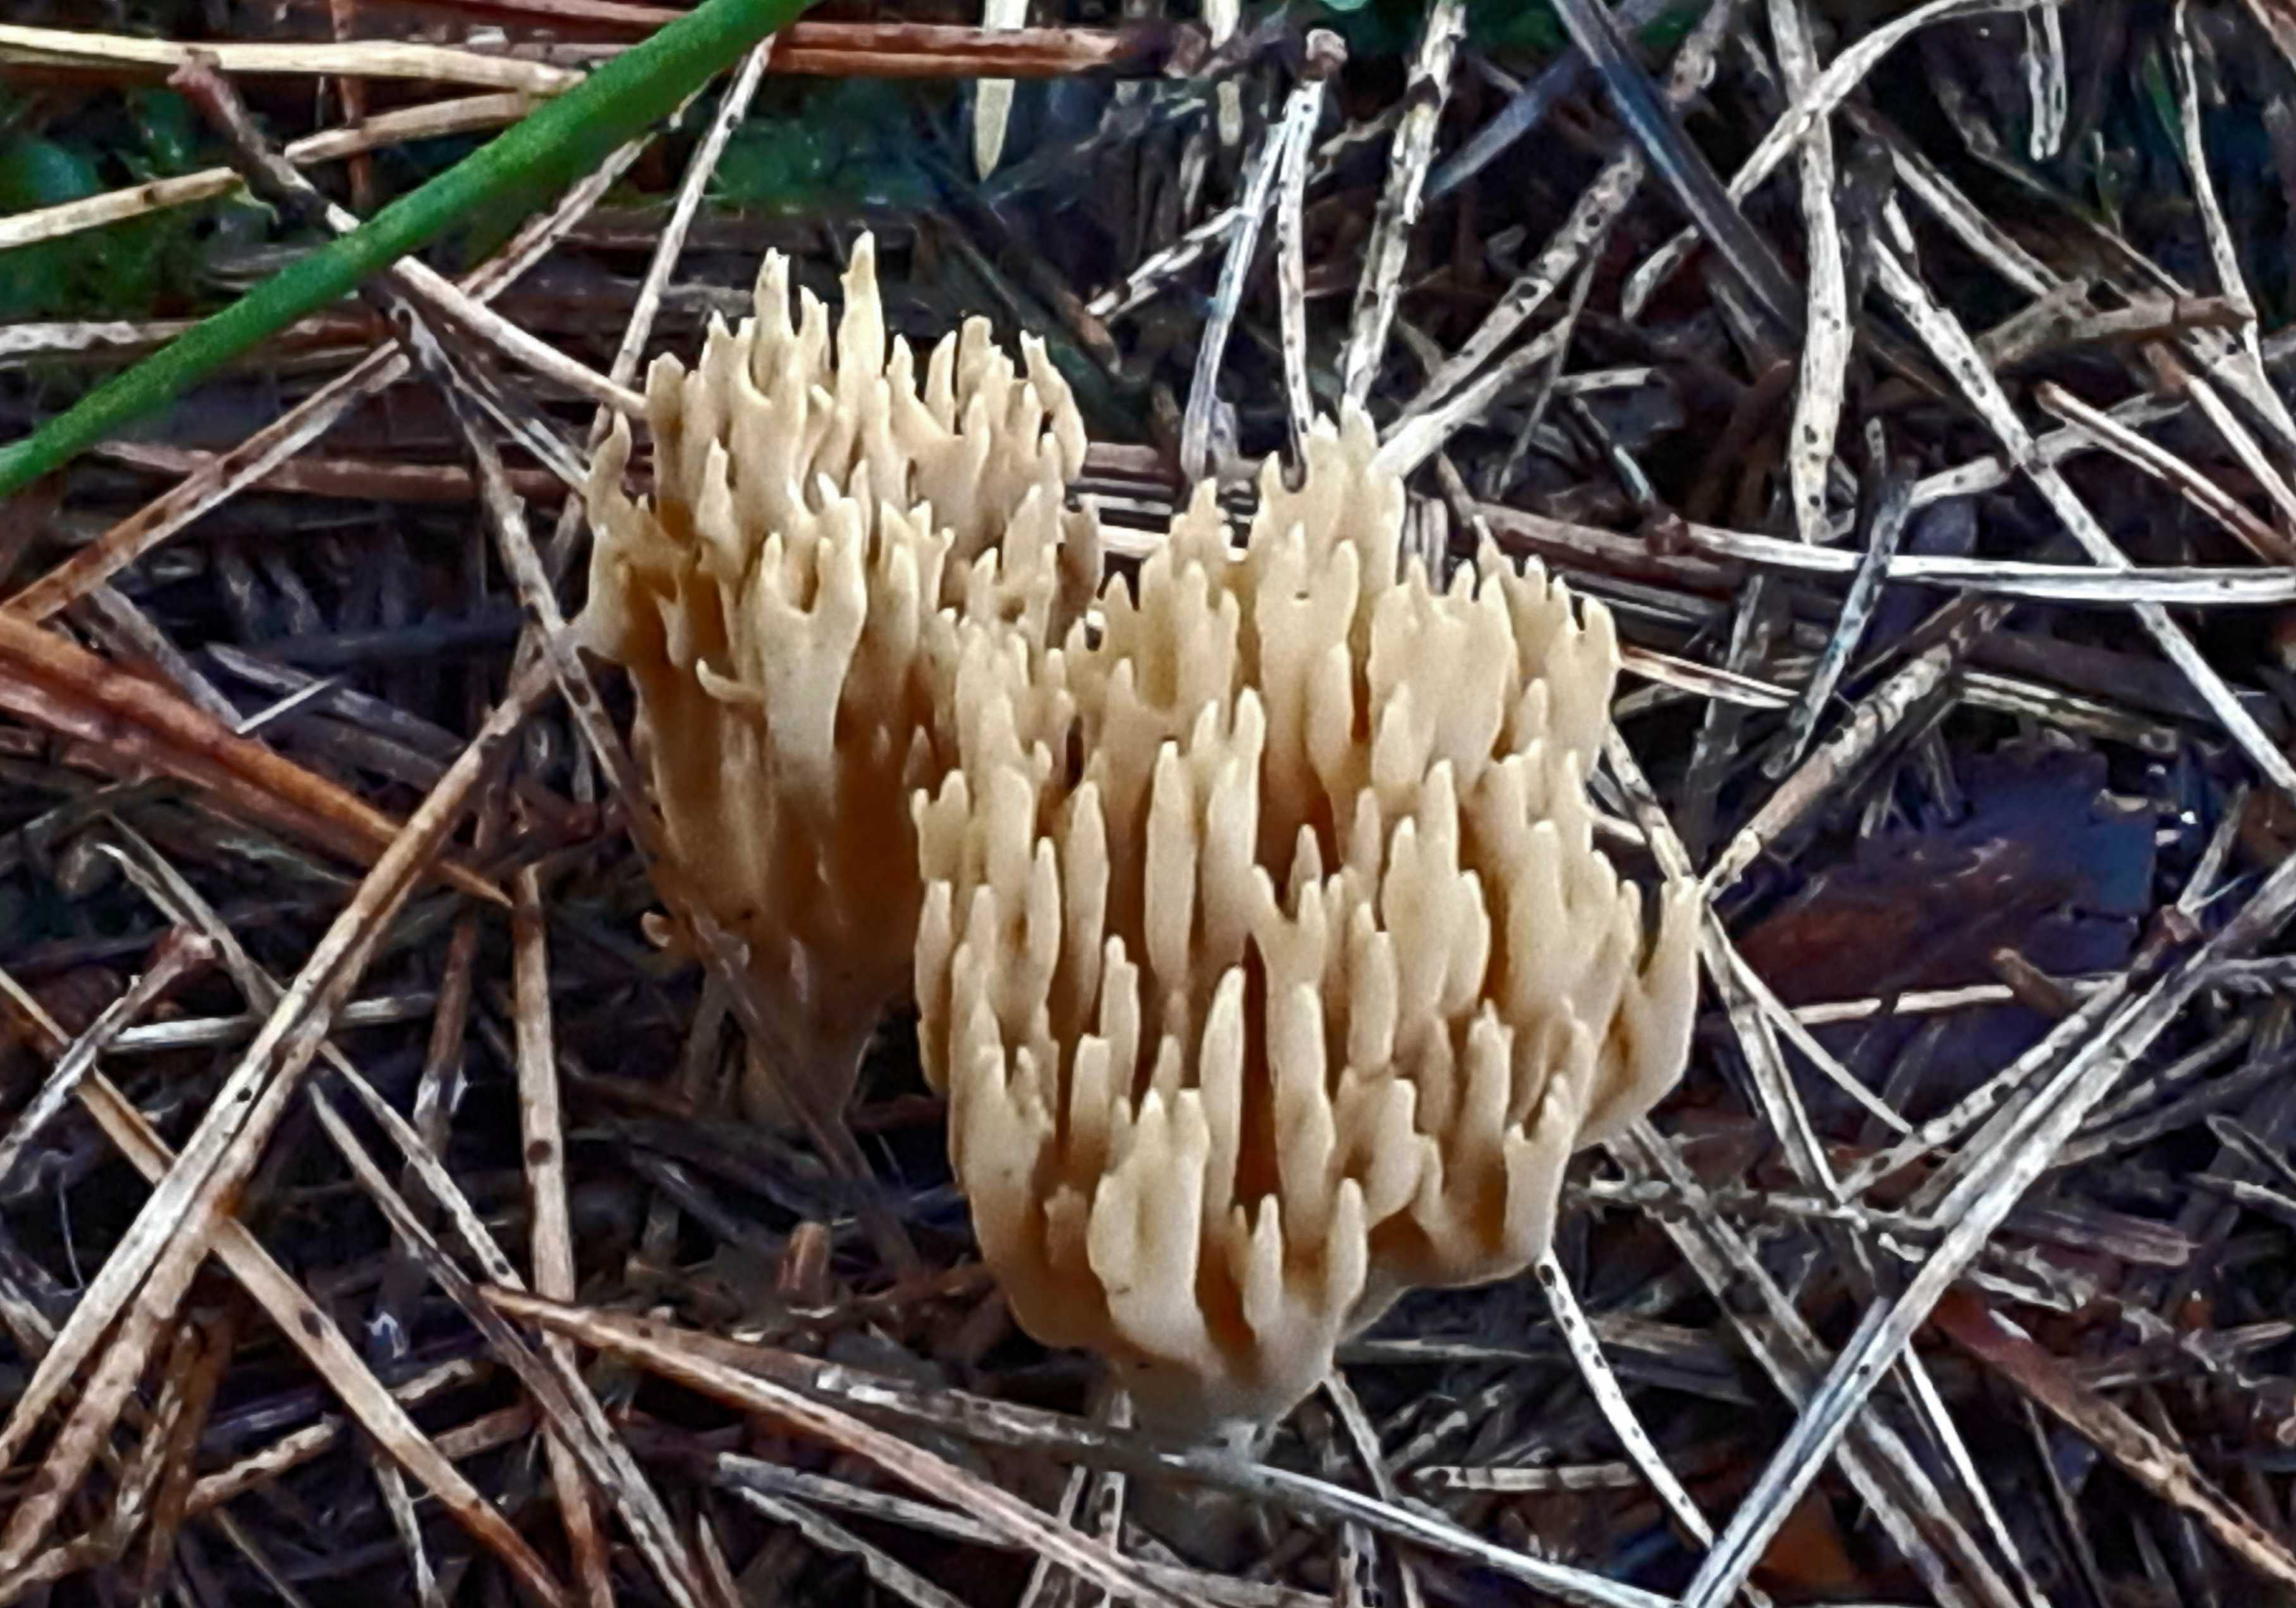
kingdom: Fungi
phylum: Basidiomycota
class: Agaricomycetes
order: Gomphales
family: Gomphaceae
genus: Phaeoclavulina
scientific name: Phaeoclavulina eumorpha
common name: gran-koralsvamp
